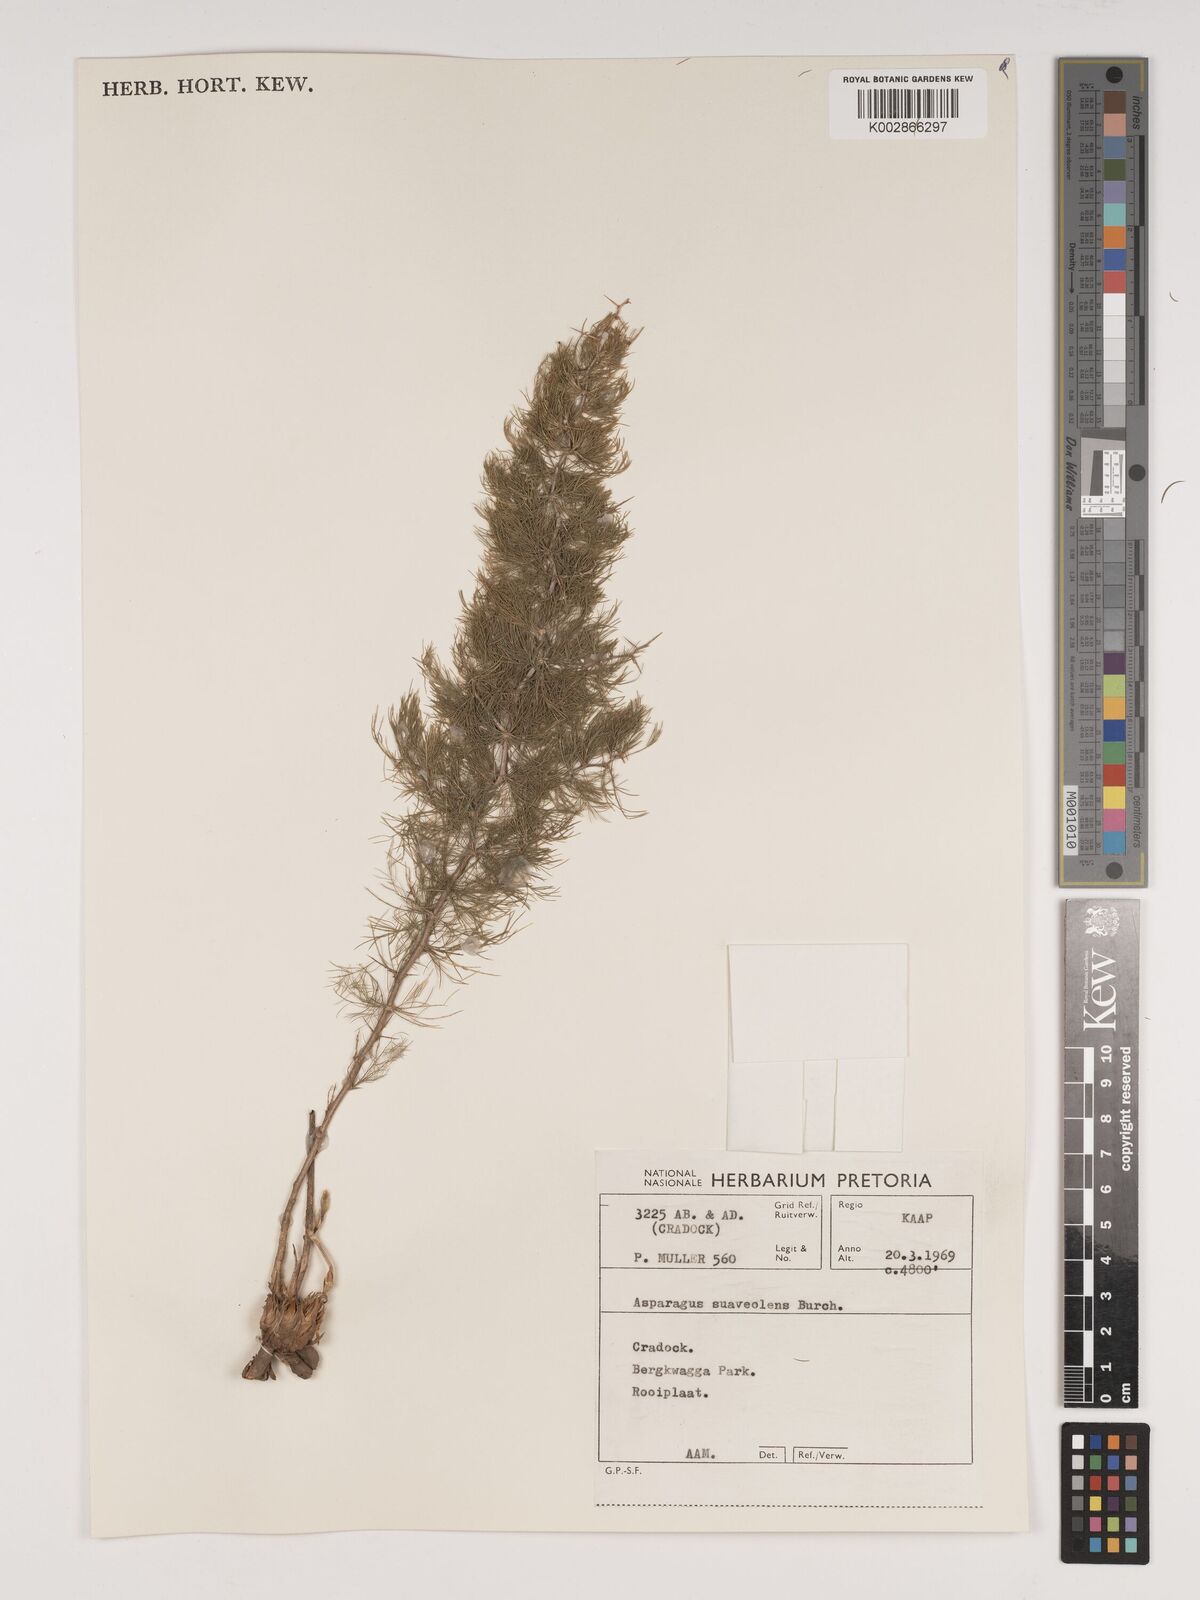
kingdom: Plantae
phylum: Tracheophyta
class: Liliopsida
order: Asparagales
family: Asparagaceae
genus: Asparagus
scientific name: Asparagus suaveolens
